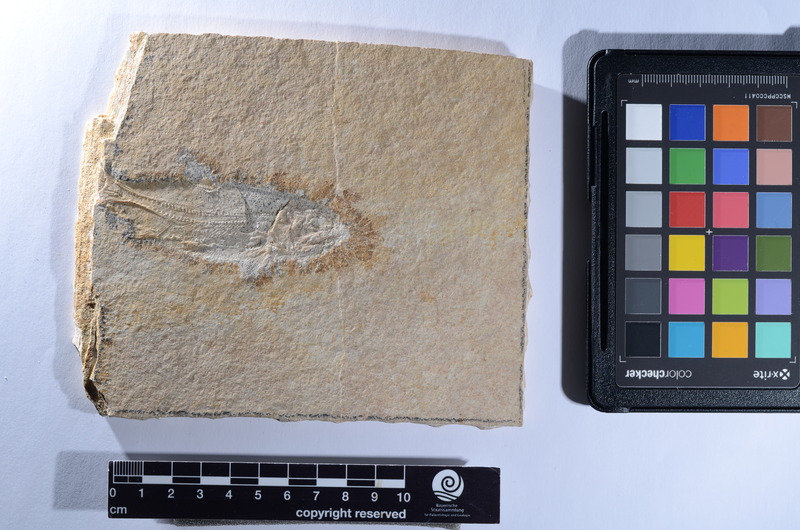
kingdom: Animalia
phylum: Chordata
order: Amiiformes
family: Caturidae
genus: Caturus
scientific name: Caturus
